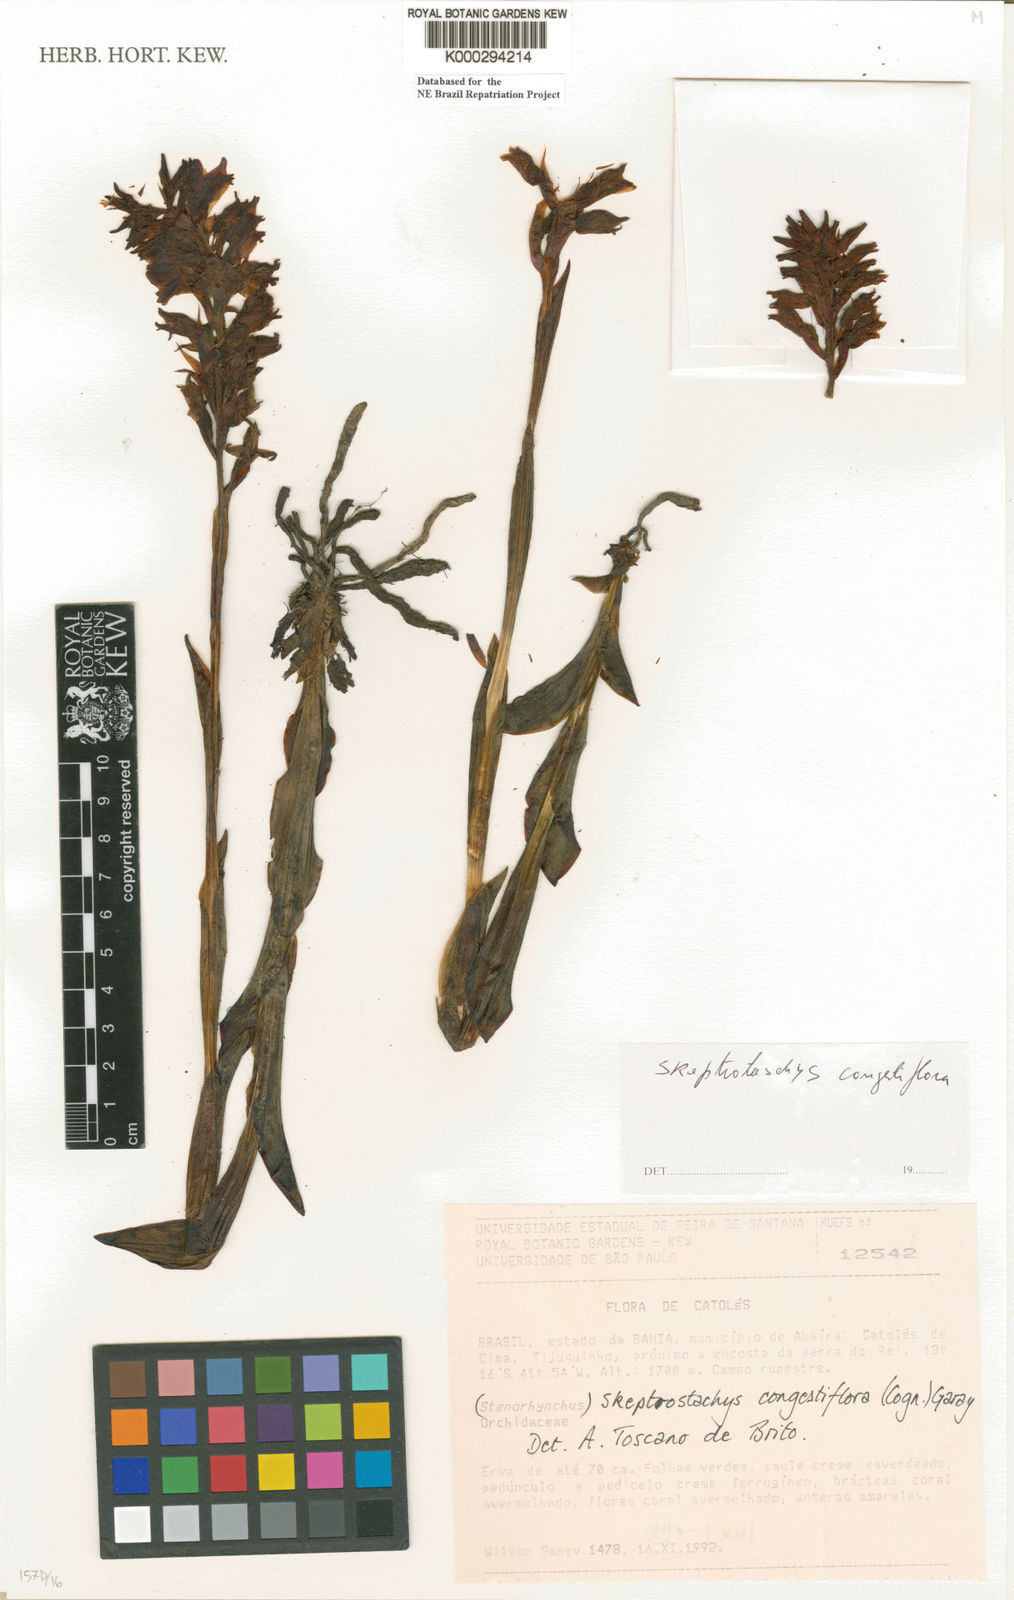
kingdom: Plantae
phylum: Tracheophyta
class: Liliopsida
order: Asparagales
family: Orchidaceae
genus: Skeptrostachys
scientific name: Skeptrostachys congestiflora
